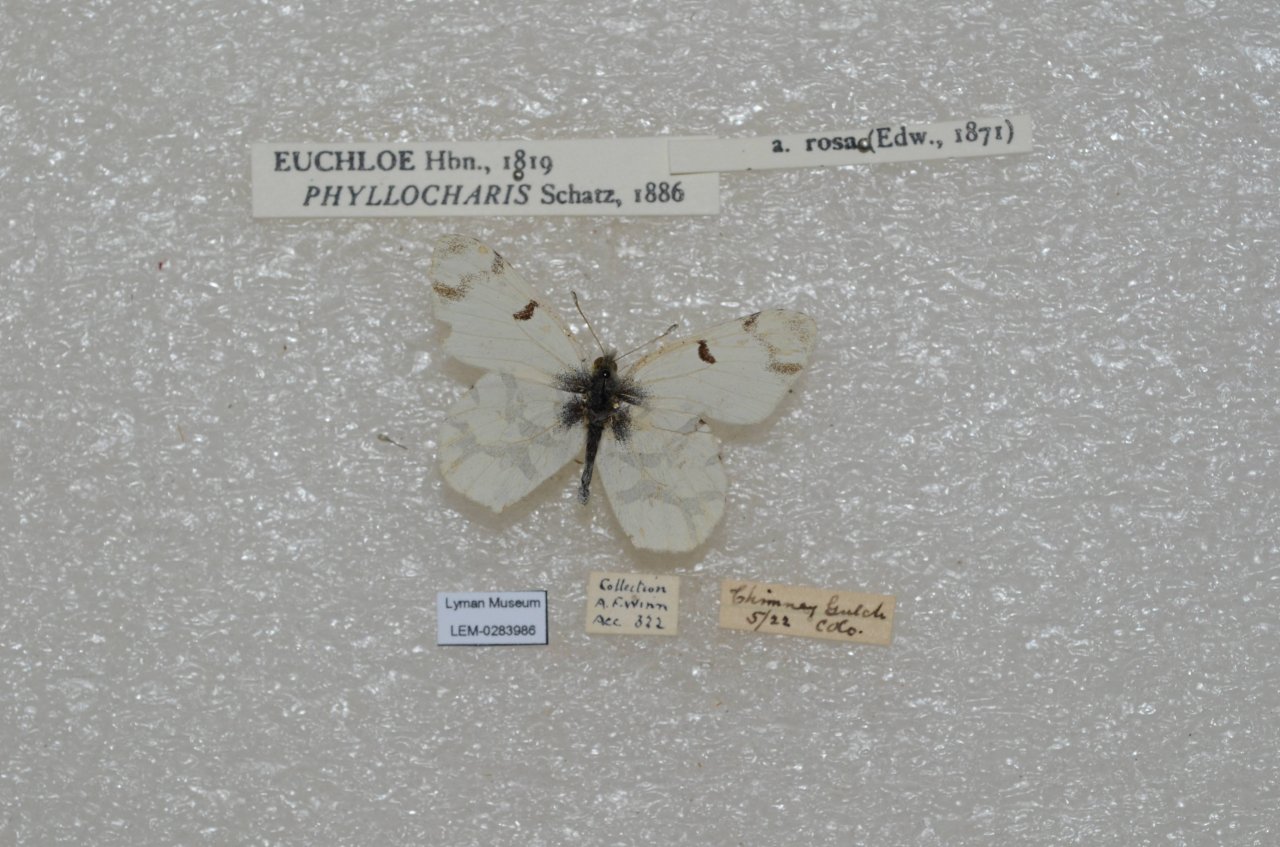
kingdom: Animalia
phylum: Arthropoda
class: Insecta
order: Lepidoptera
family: Pieridae
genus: Euchloe
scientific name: Euchloe olympia
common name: Olympia Marble
